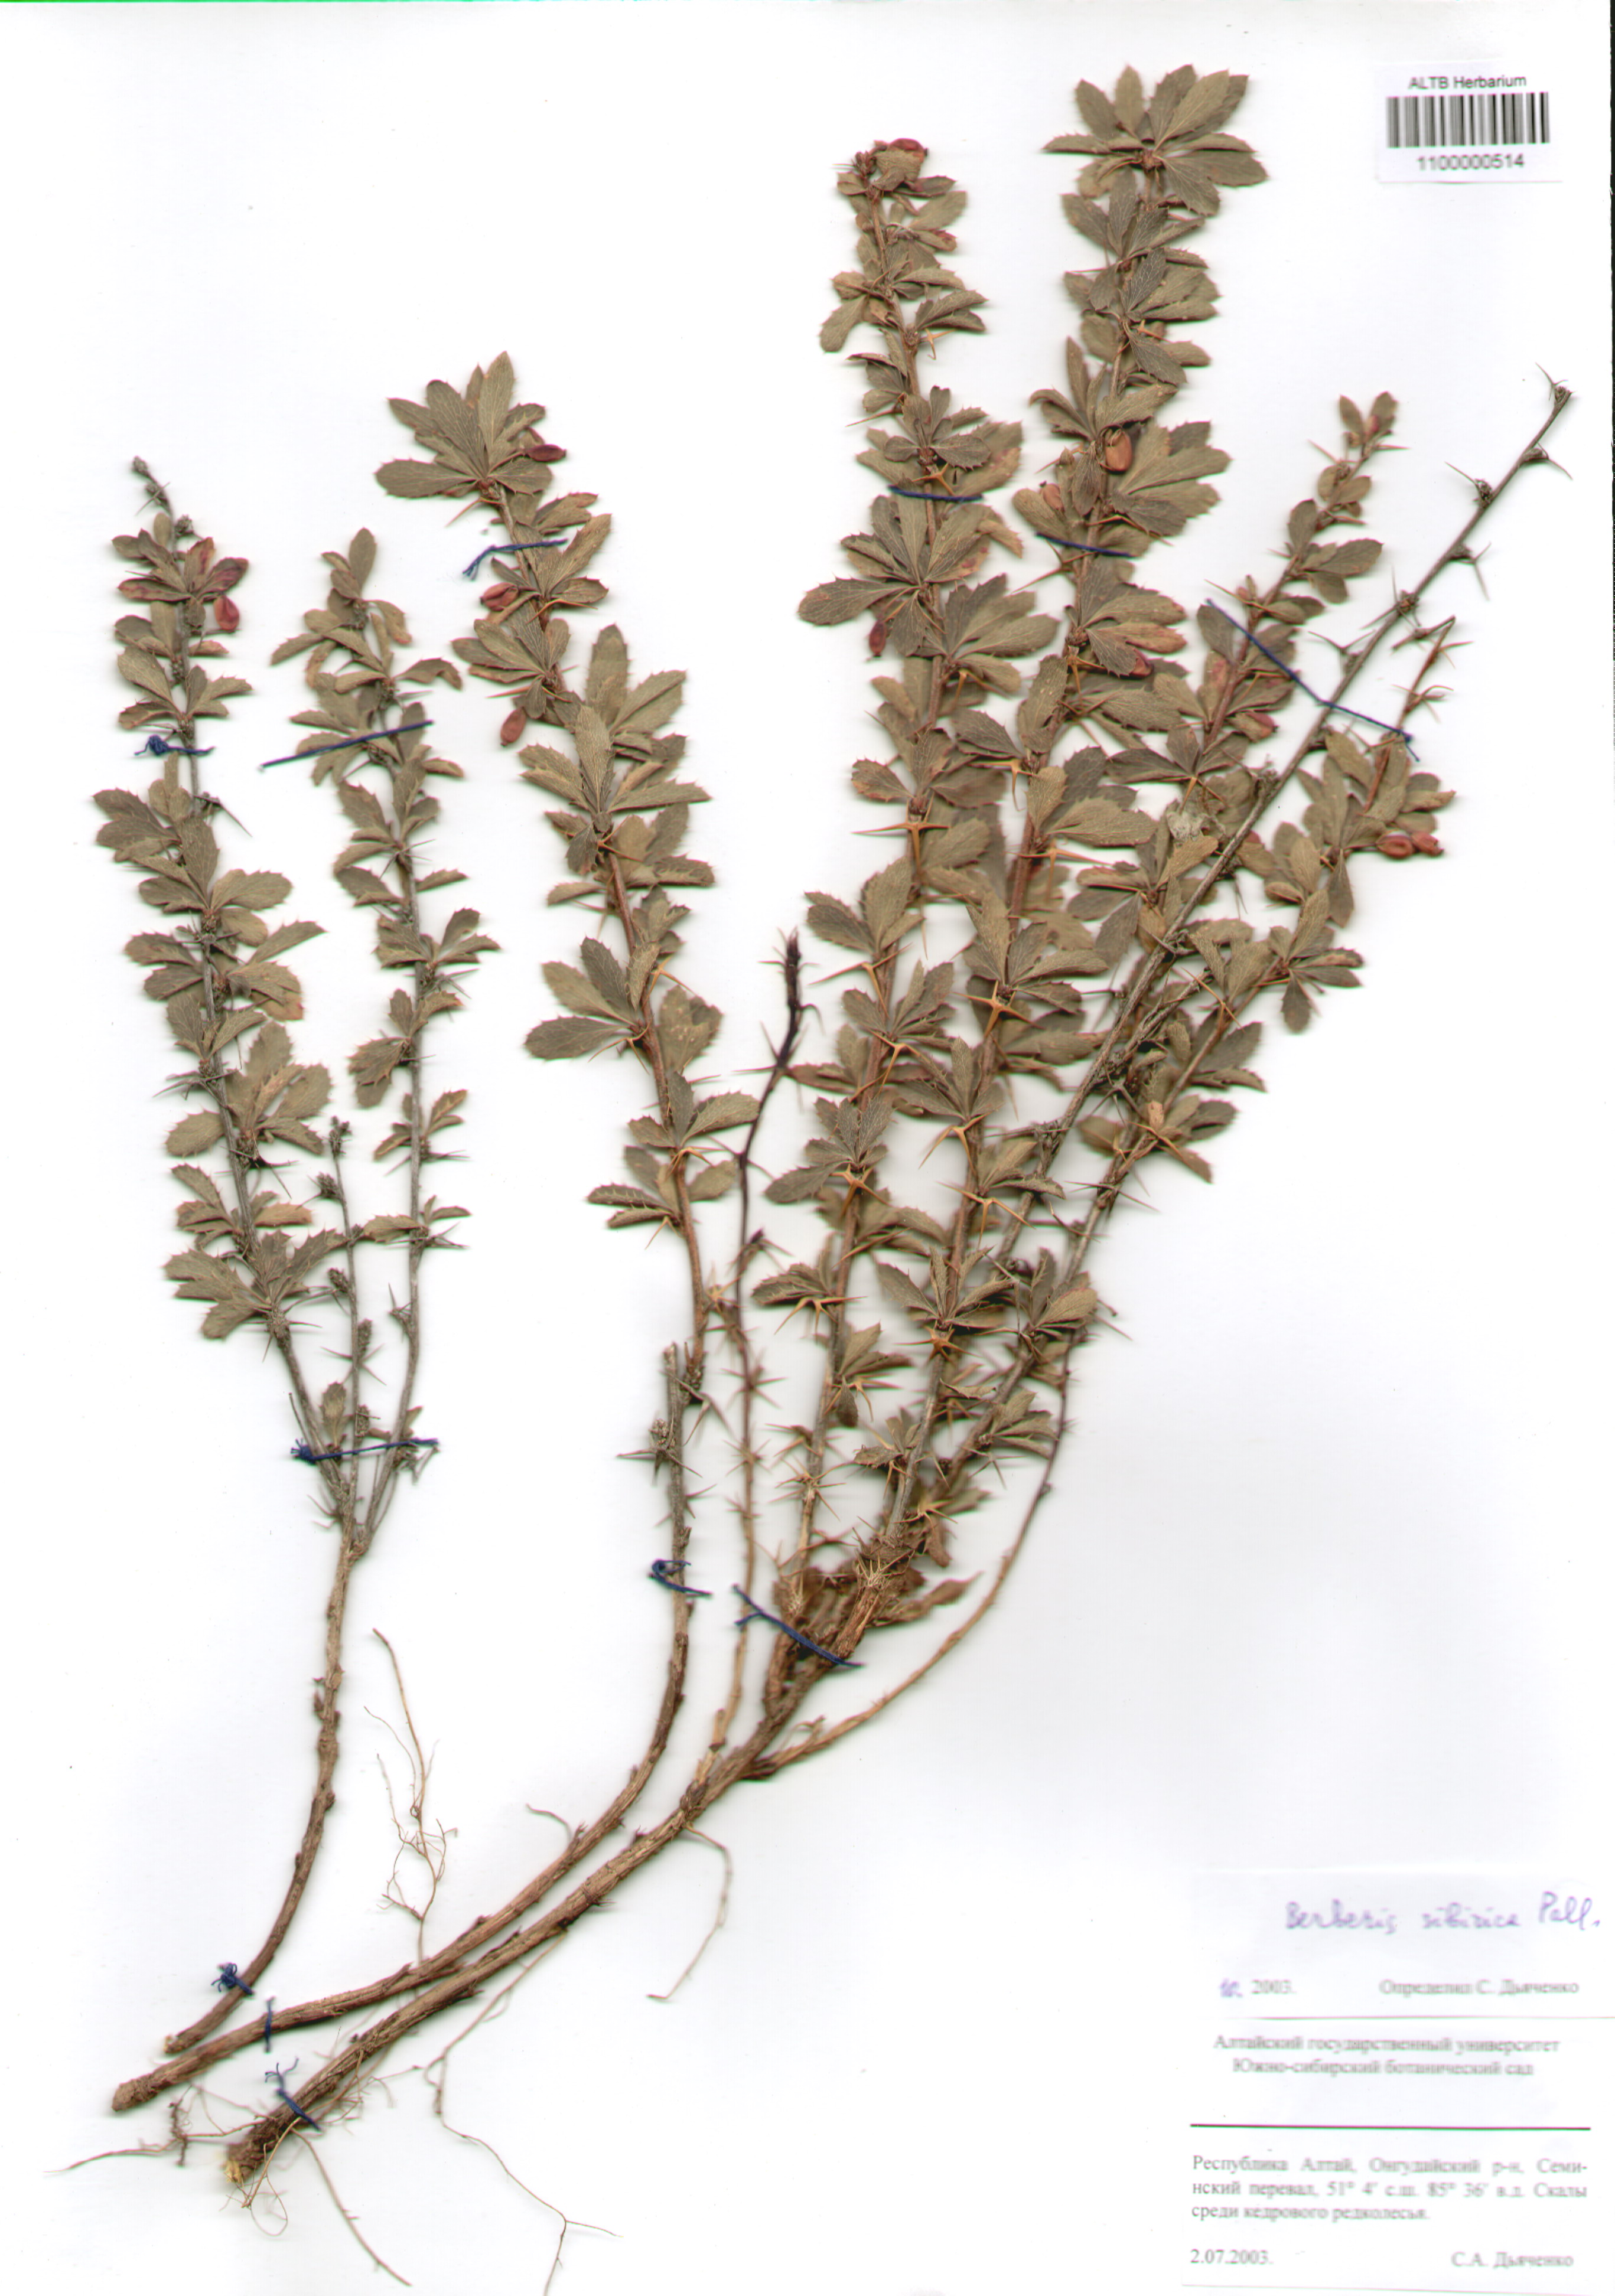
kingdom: Plantae
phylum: Tracheophyta
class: Magnoliopsida
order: Ranunculales
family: Berberidaceae
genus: Berberis
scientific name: Berberis sibirica
